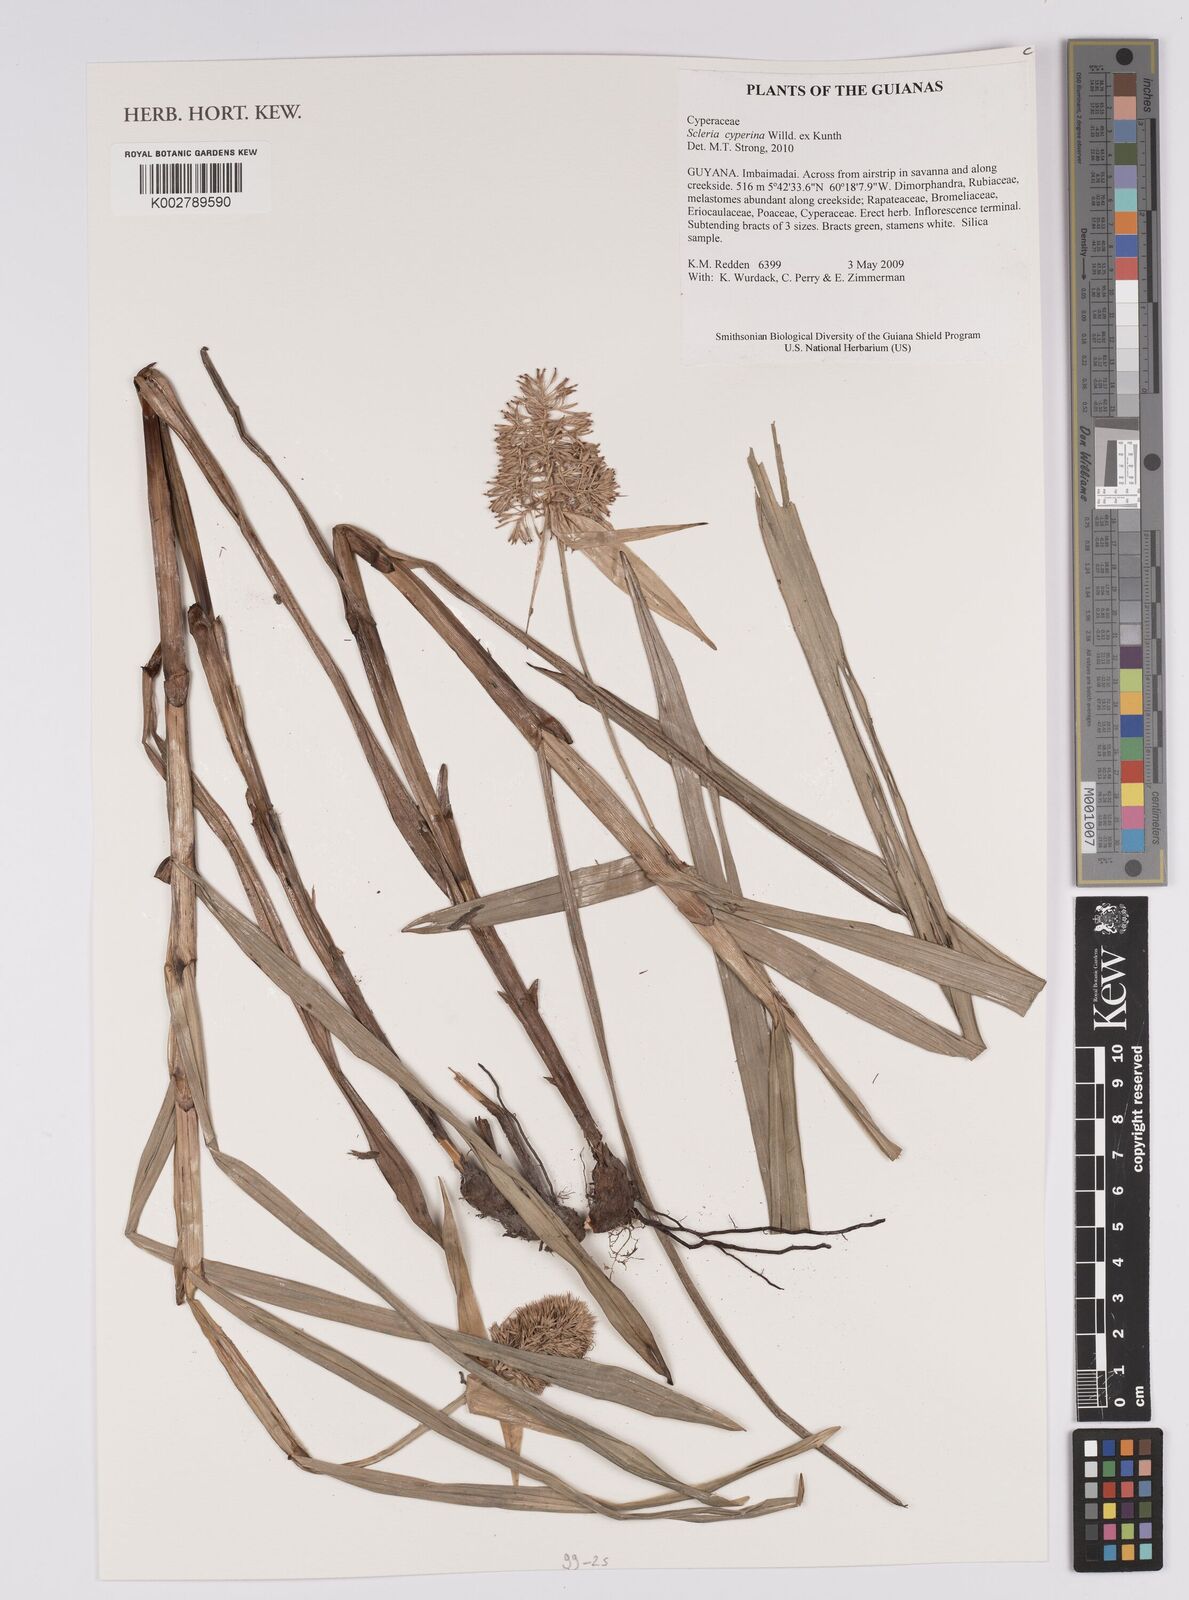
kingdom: Plantae
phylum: Tracheophyta
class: Liliopsida
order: Poales
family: Cyperaceae
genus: Scleria
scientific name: Scleria cyperina
